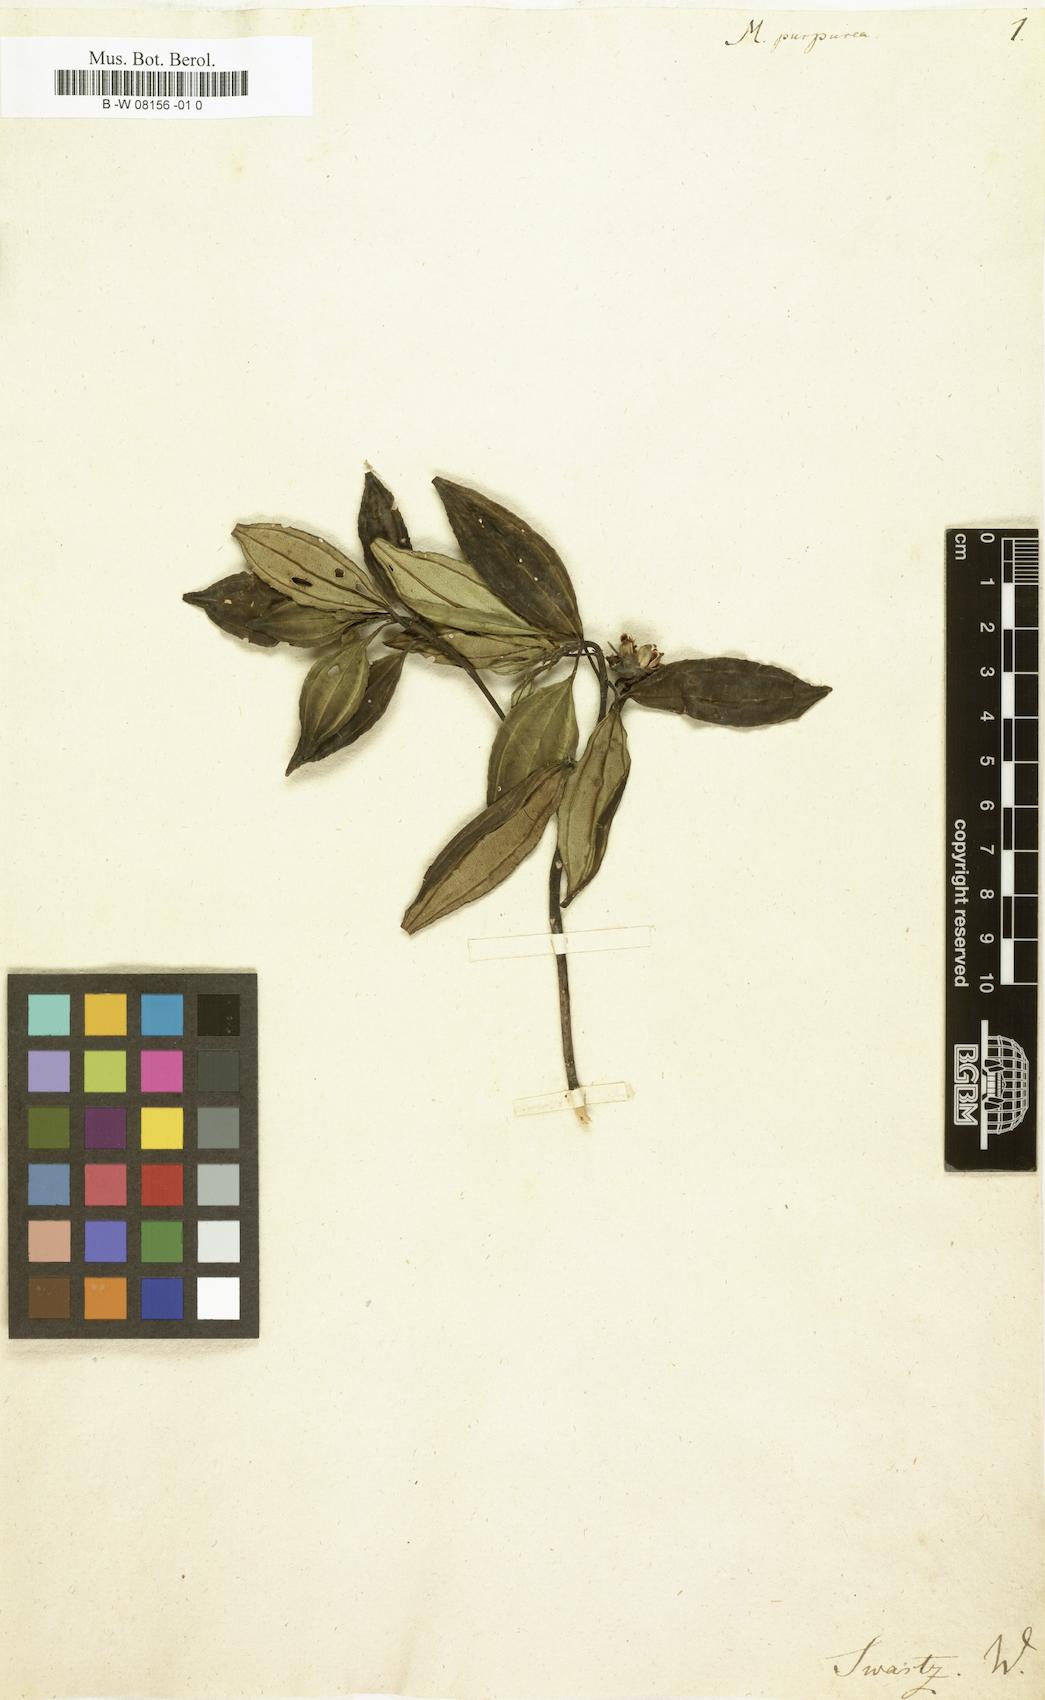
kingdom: Plantae
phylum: Tracheophyta
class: Magnoliopsida
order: Myrtales
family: Melastomataceae
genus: Meriania
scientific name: Meriania purpurea
